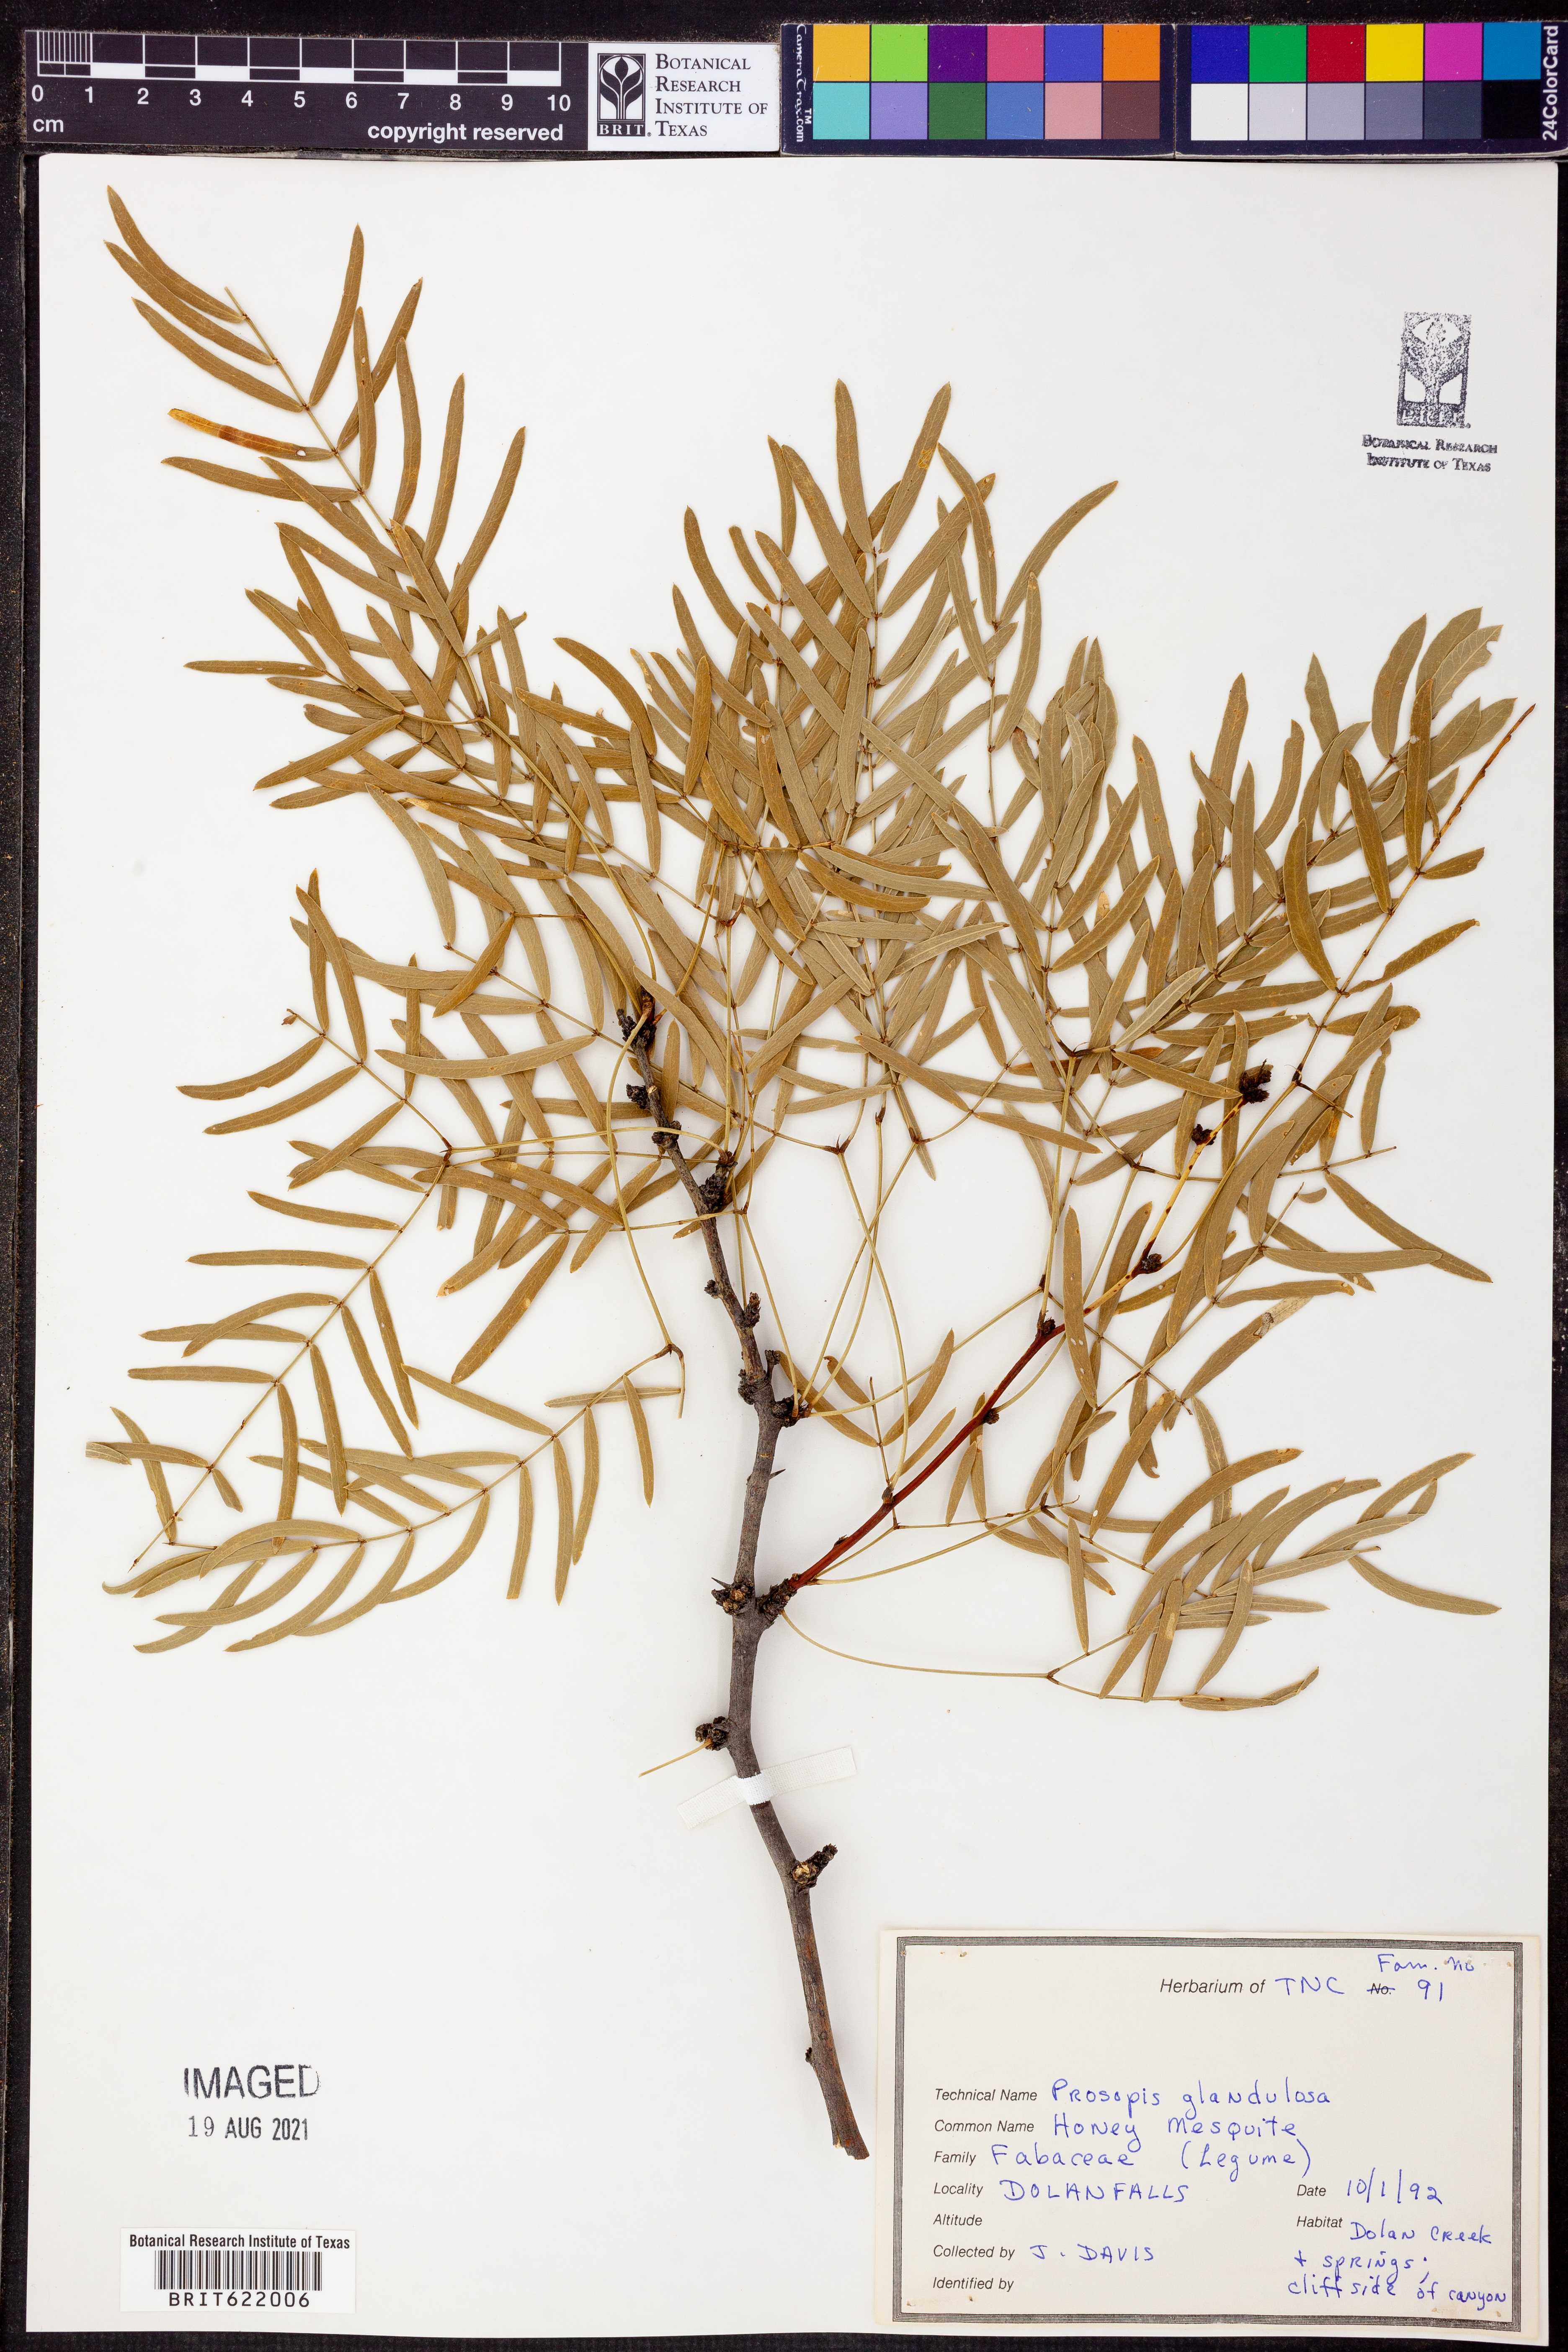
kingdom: Plantae
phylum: Tracheophyta
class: Magnoliopsida
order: Fabales
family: Fabaceae
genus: Prosopis
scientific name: Prosopis glandulosa
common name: Honey mesquite
